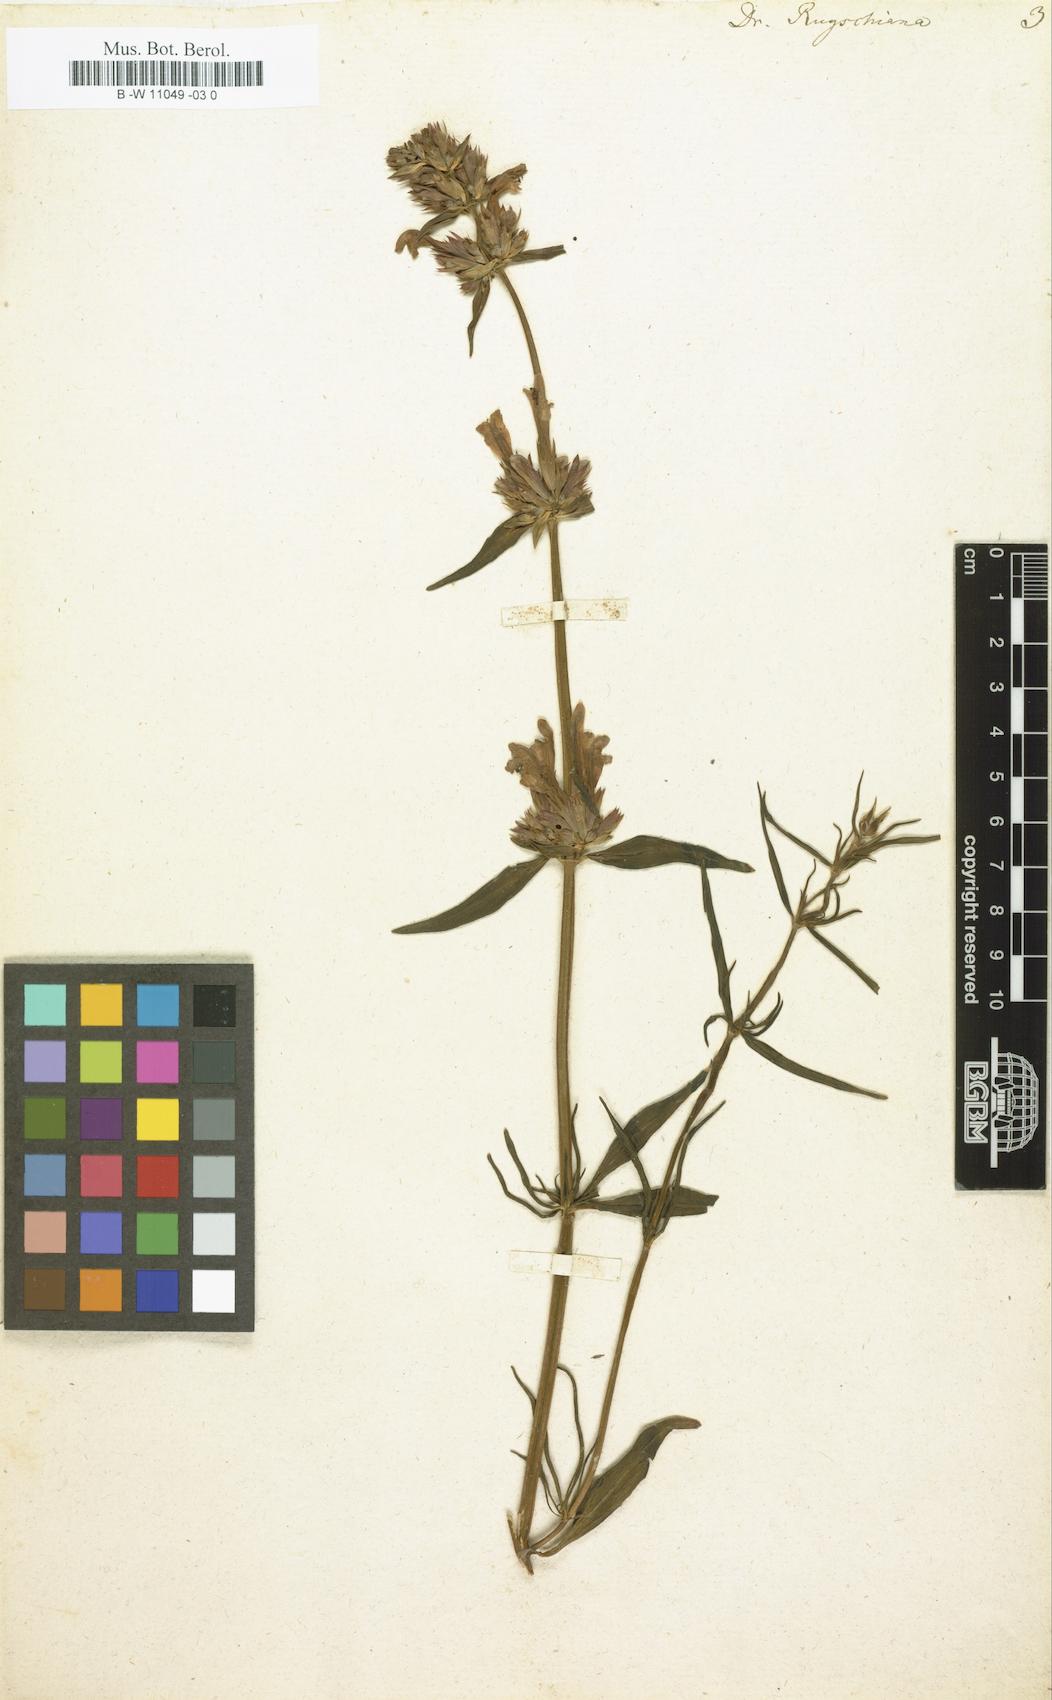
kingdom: Plantae
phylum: Tracheophyta
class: Magnoliopsida
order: Lamiales
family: Lamiaceae
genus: Dracocephalum
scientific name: Dracocephalum ruyschiana
